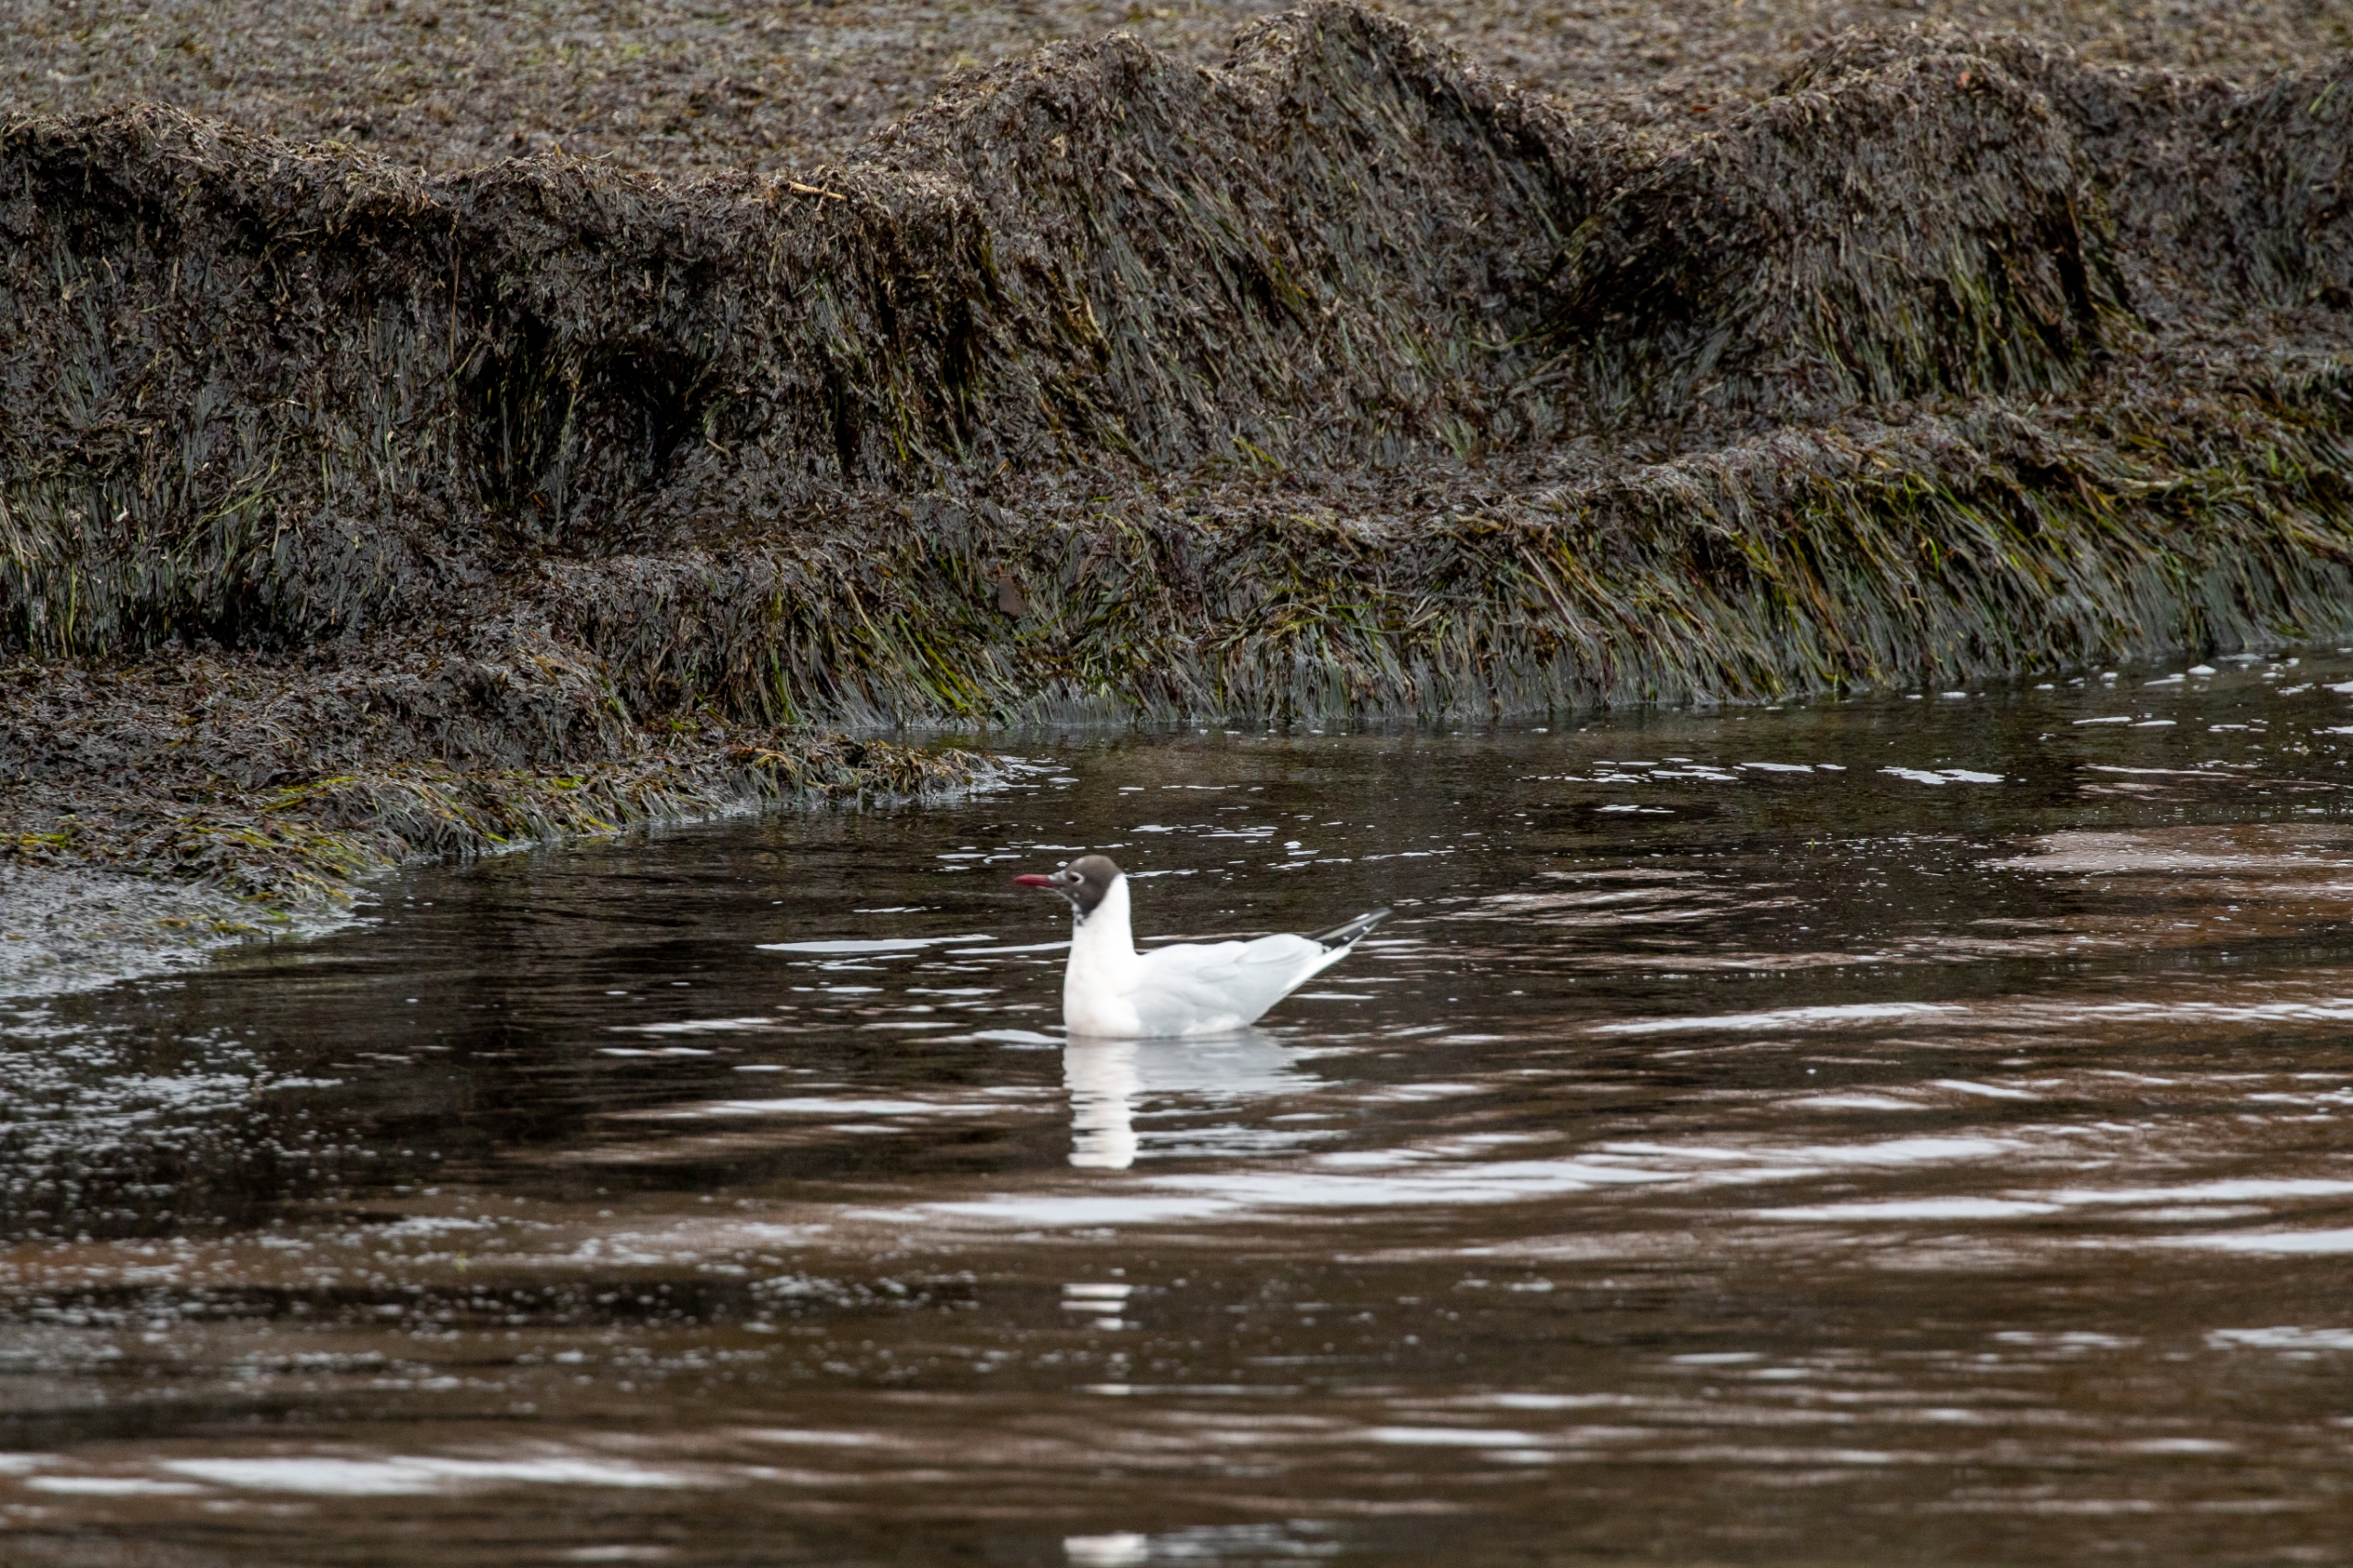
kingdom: Animalia
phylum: Chordata
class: Aves
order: Charadriiformes
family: Laridae
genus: Chroicocephalus
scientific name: Chroicocephalus ridibundus
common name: Hættemåge
